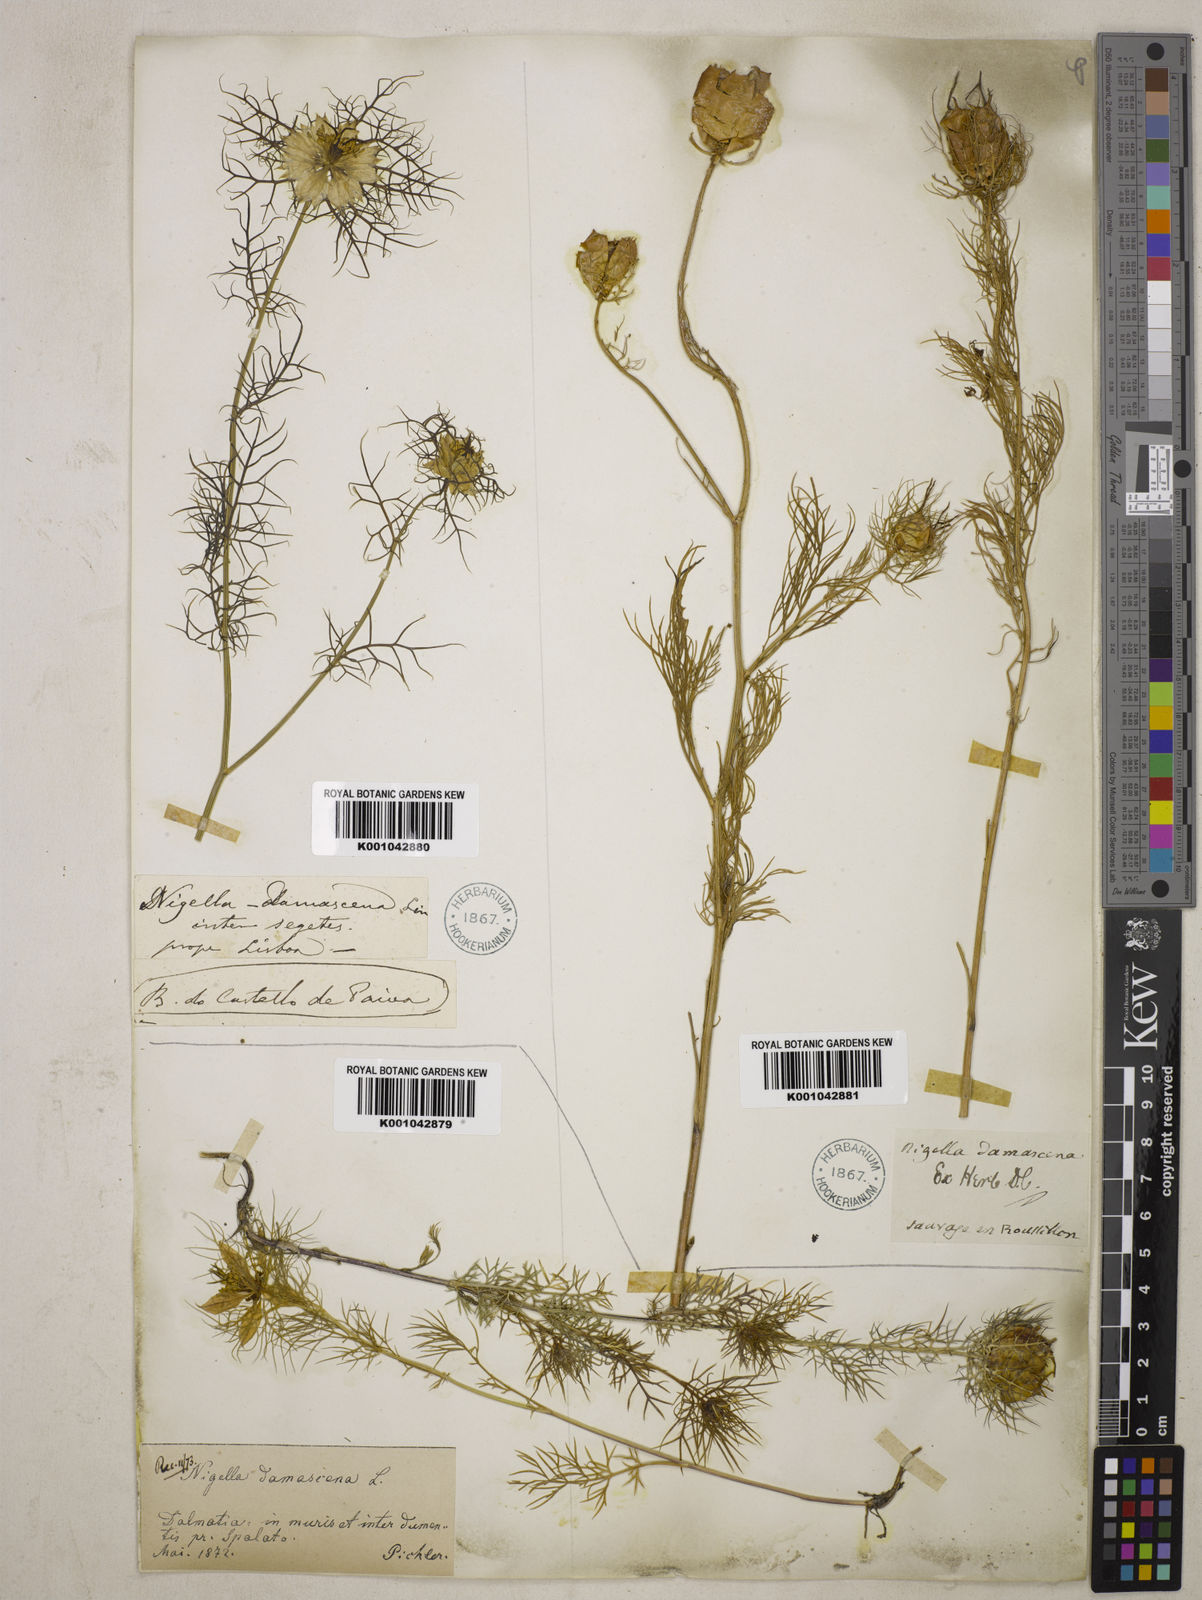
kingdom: Plantae
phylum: Tracheophyta
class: Magnoliopsida
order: Ranunculales
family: Ranunculaceae
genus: Nigella
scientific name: Nigella damascena
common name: Love-in-a-mist
